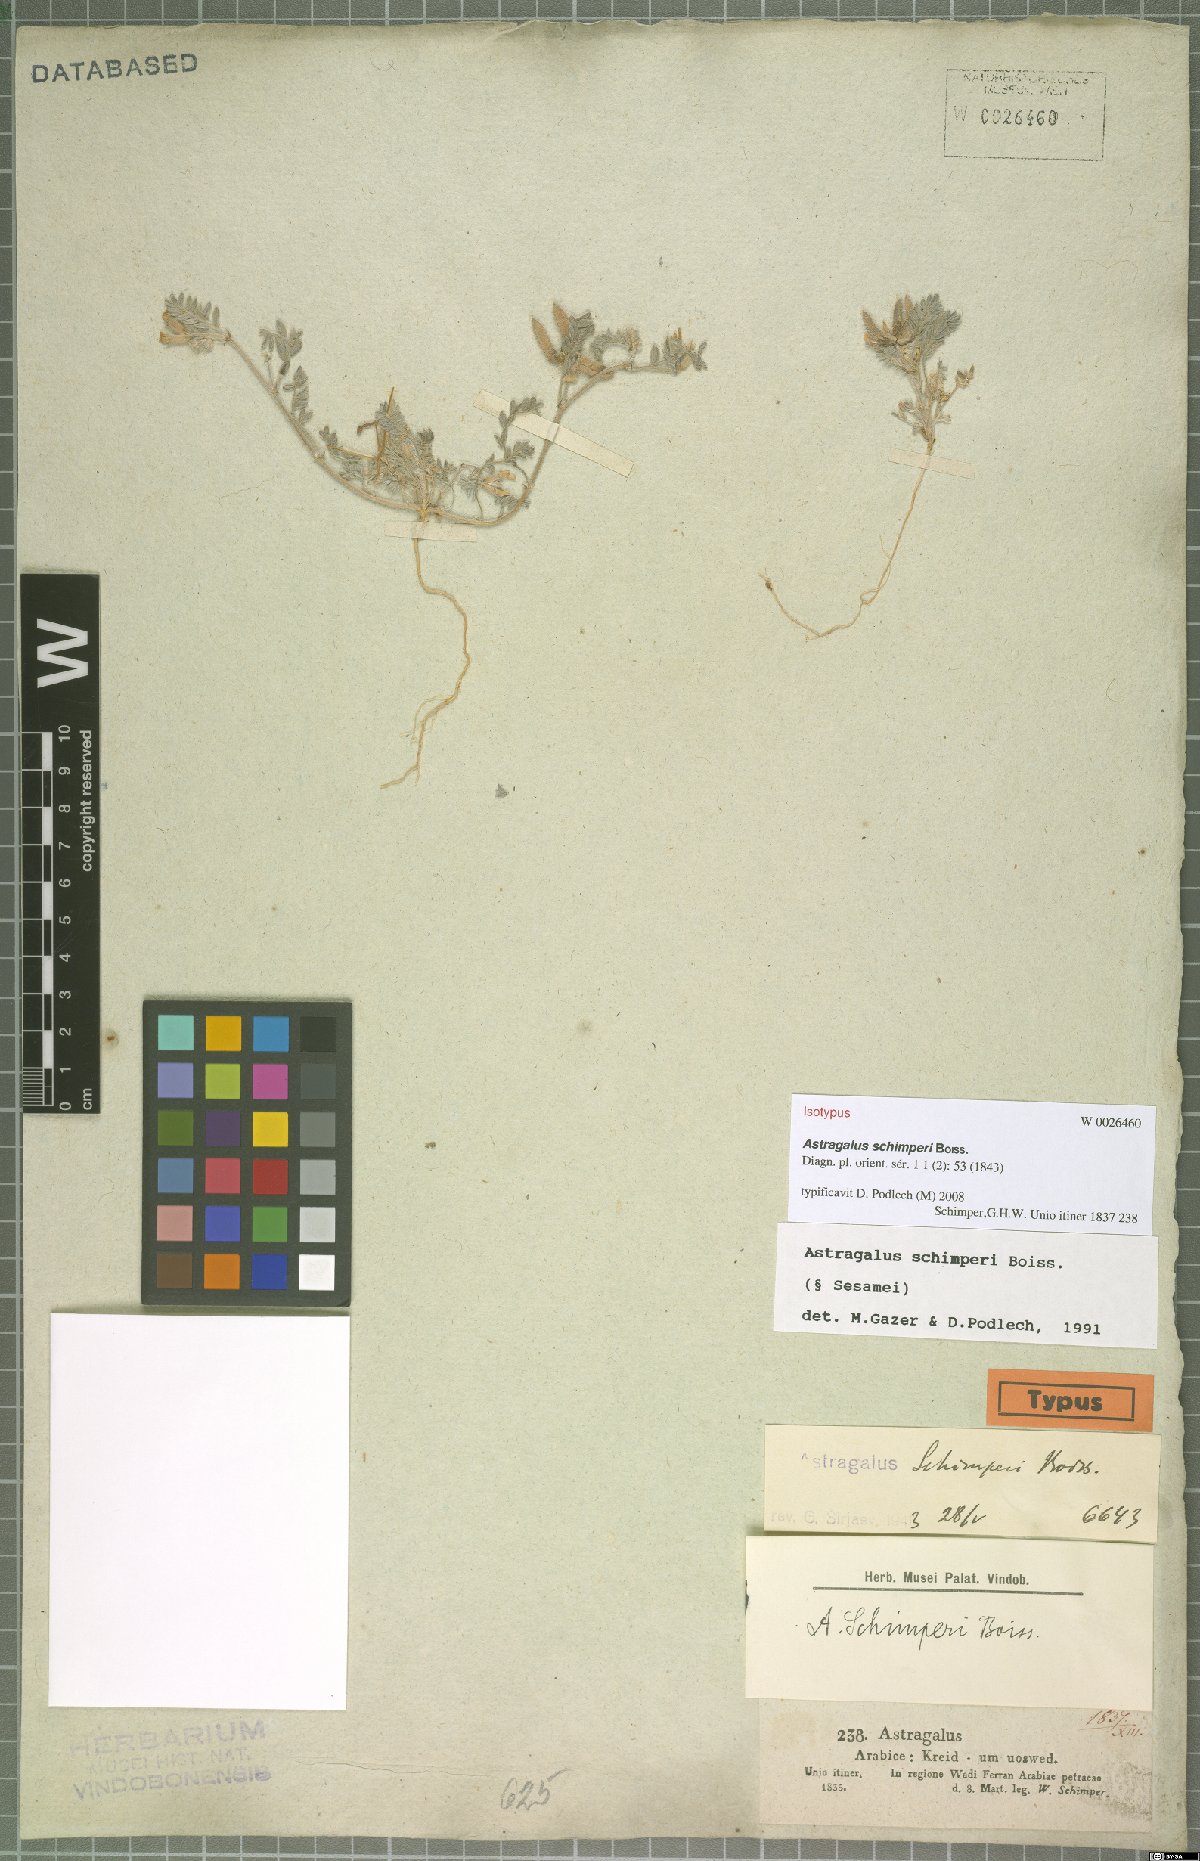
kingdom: Plantae
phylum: Tracheophyta
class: Magnoliopsida
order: Fabales
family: Fabaceae
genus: Astragalus
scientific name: Astragalus schimperi
